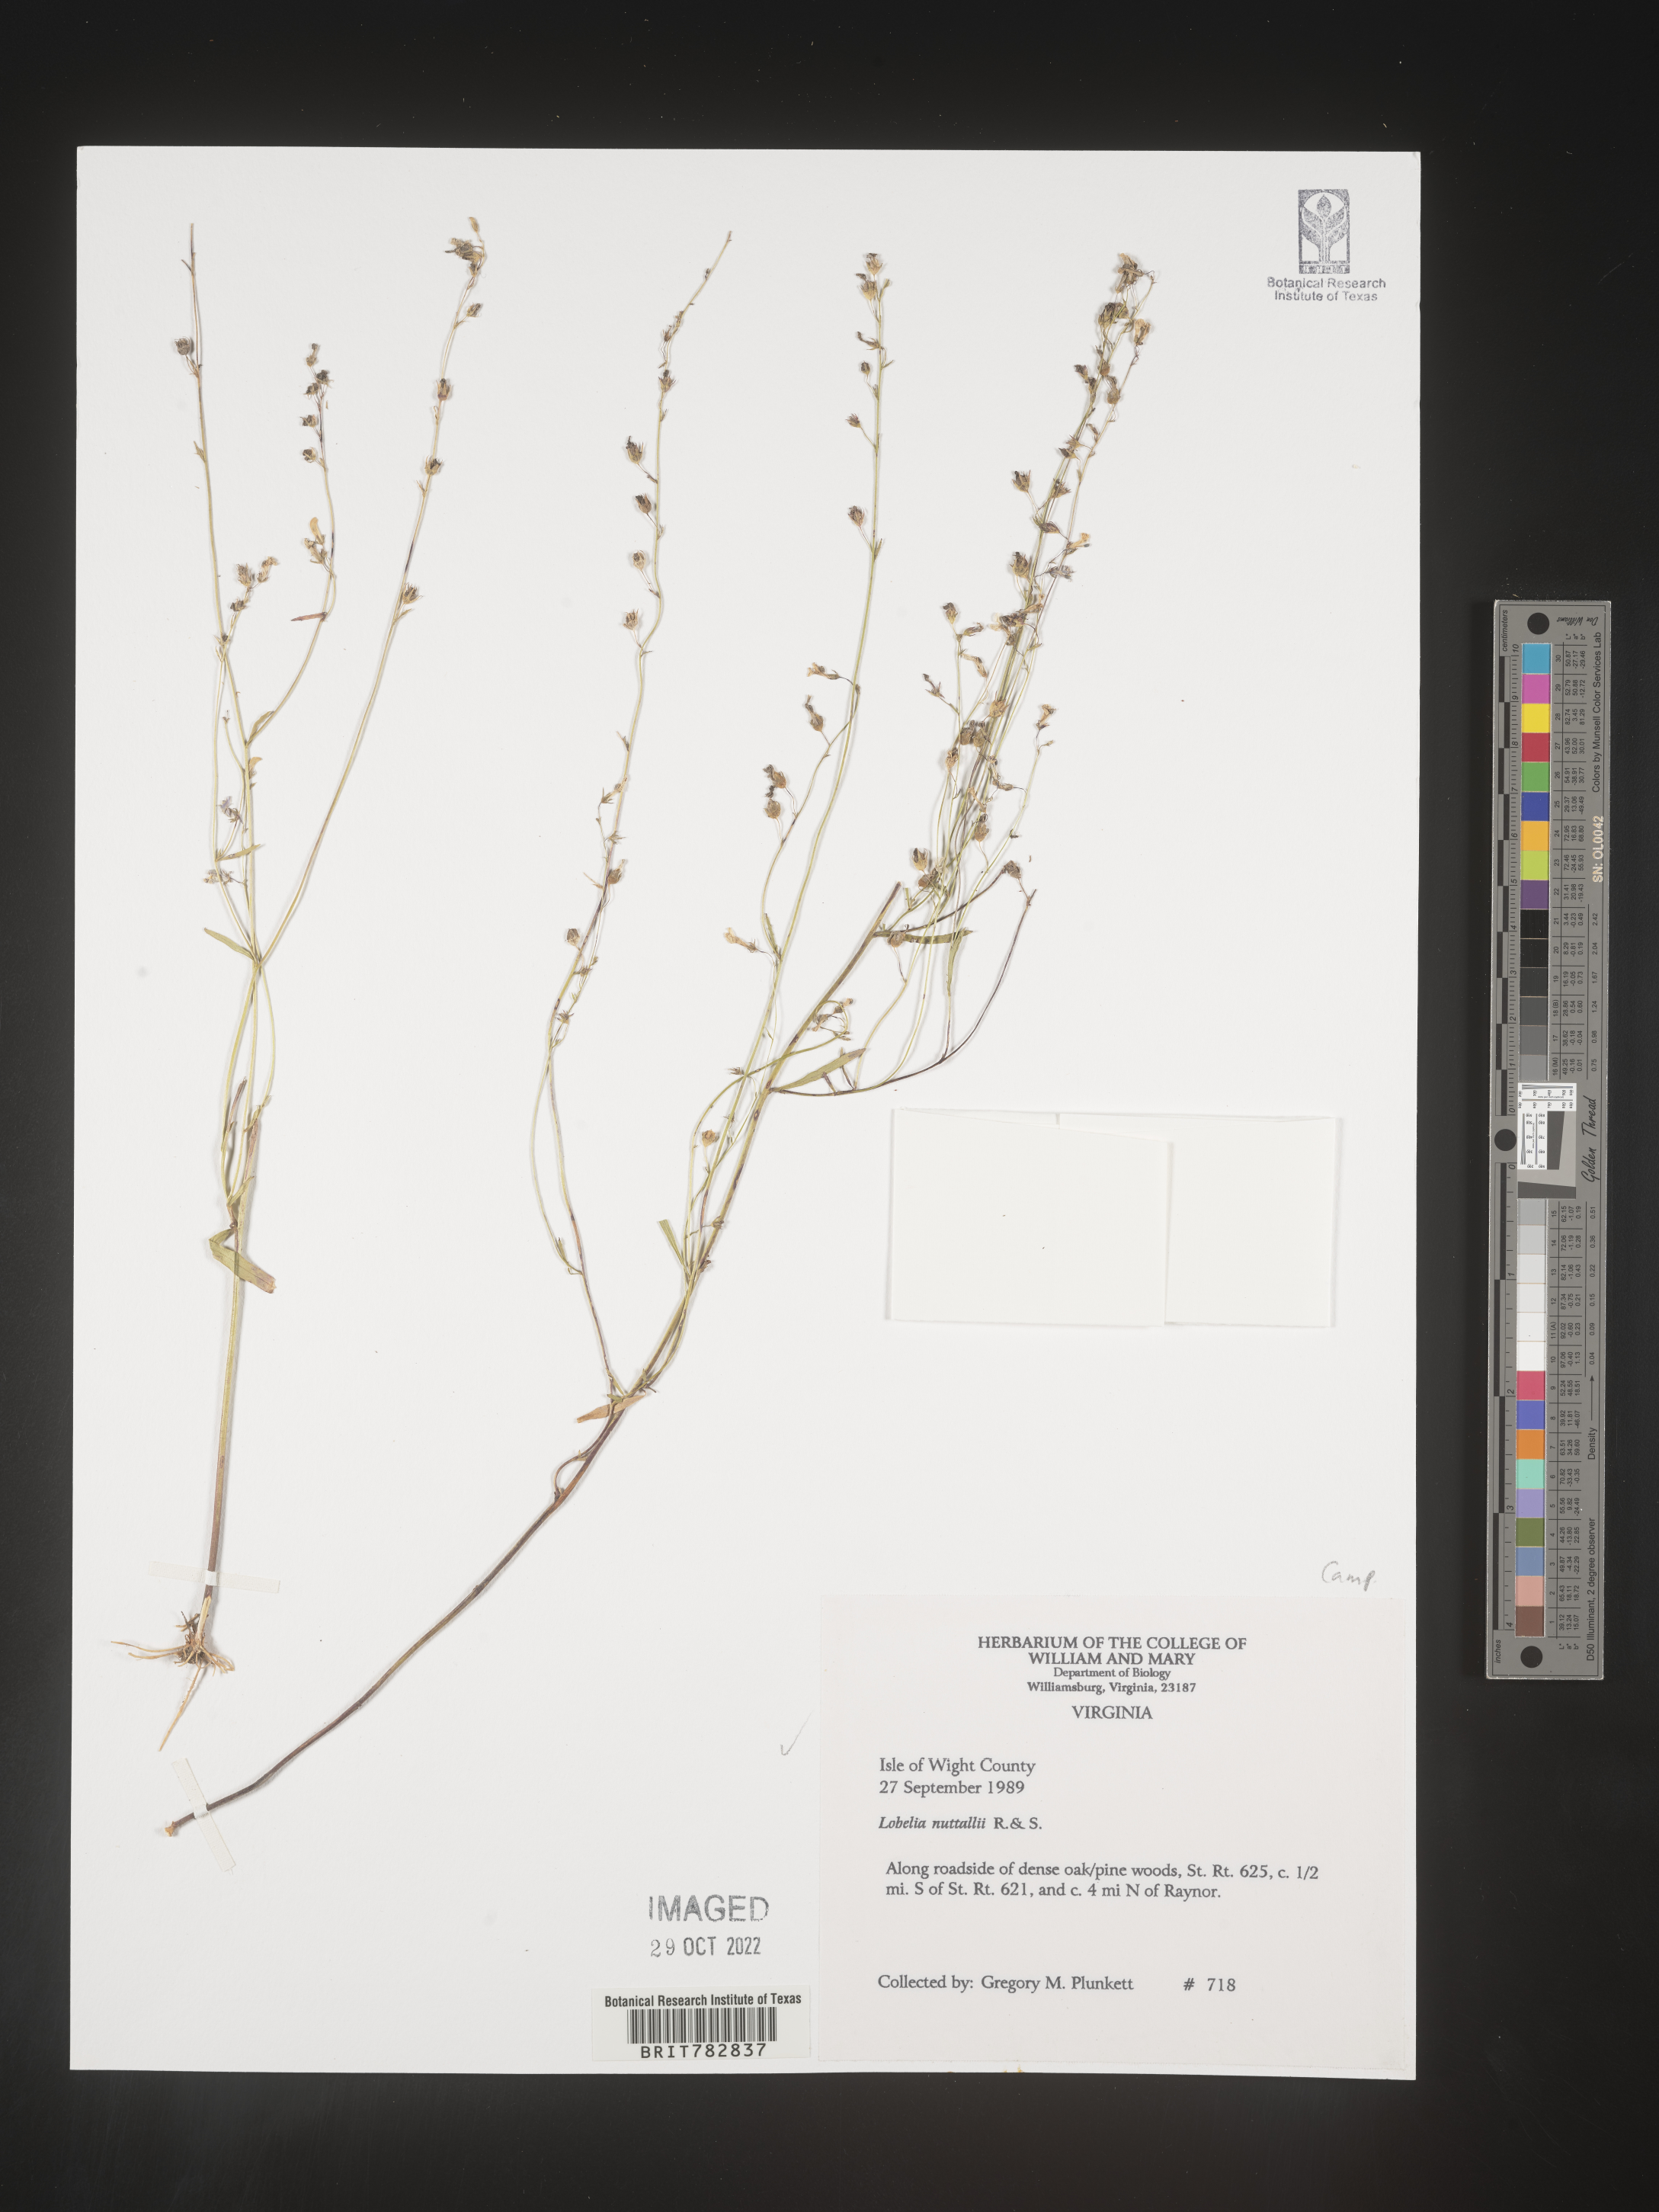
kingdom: Plantae
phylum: Tracheophyta
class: Magnoliopsida
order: Asterales
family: Campanulaceae
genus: Lobelia
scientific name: Lobelia nuttallii
